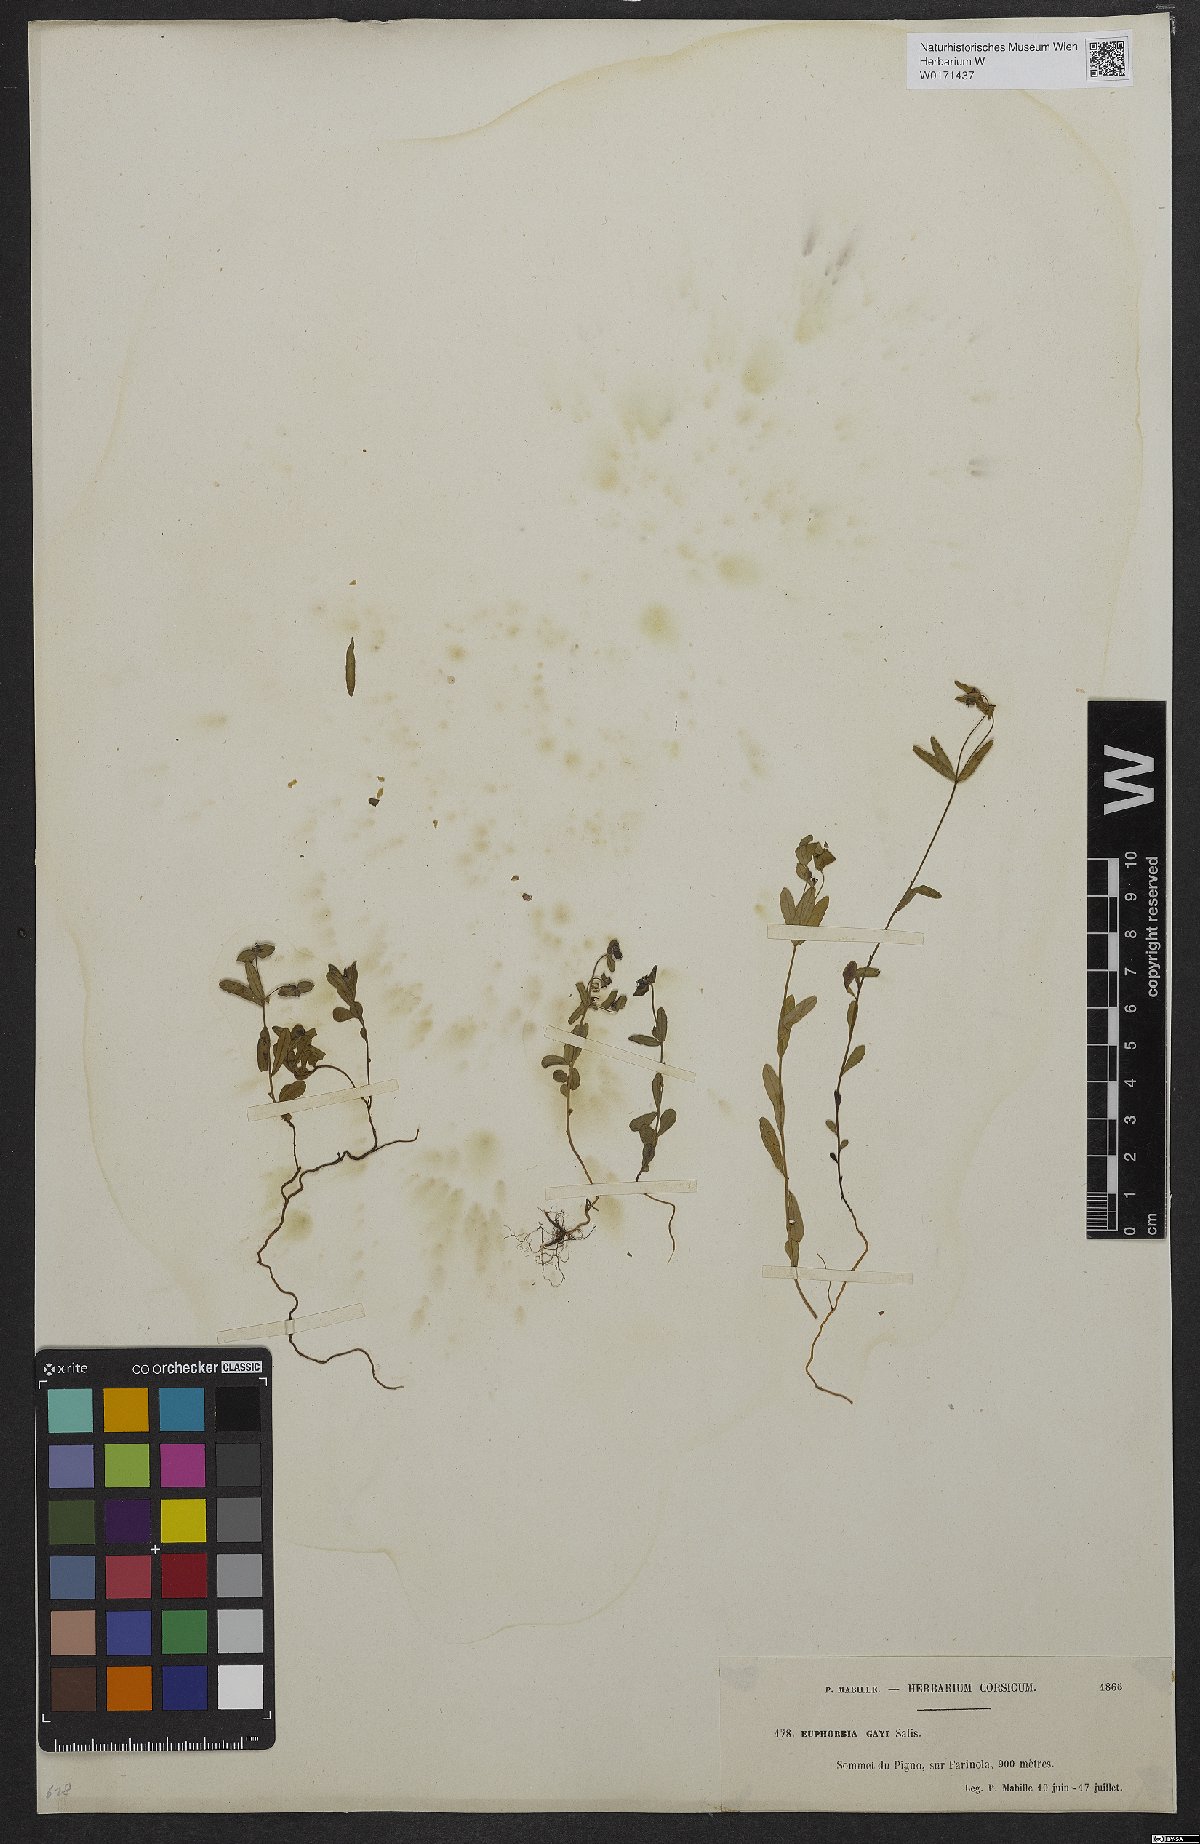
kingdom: Plantae
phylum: Tracheophyta
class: Magnoliopsida
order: Malpighiales
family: Euphorbiaceae
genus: Euphorbia
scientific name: Euphorbia gayi
